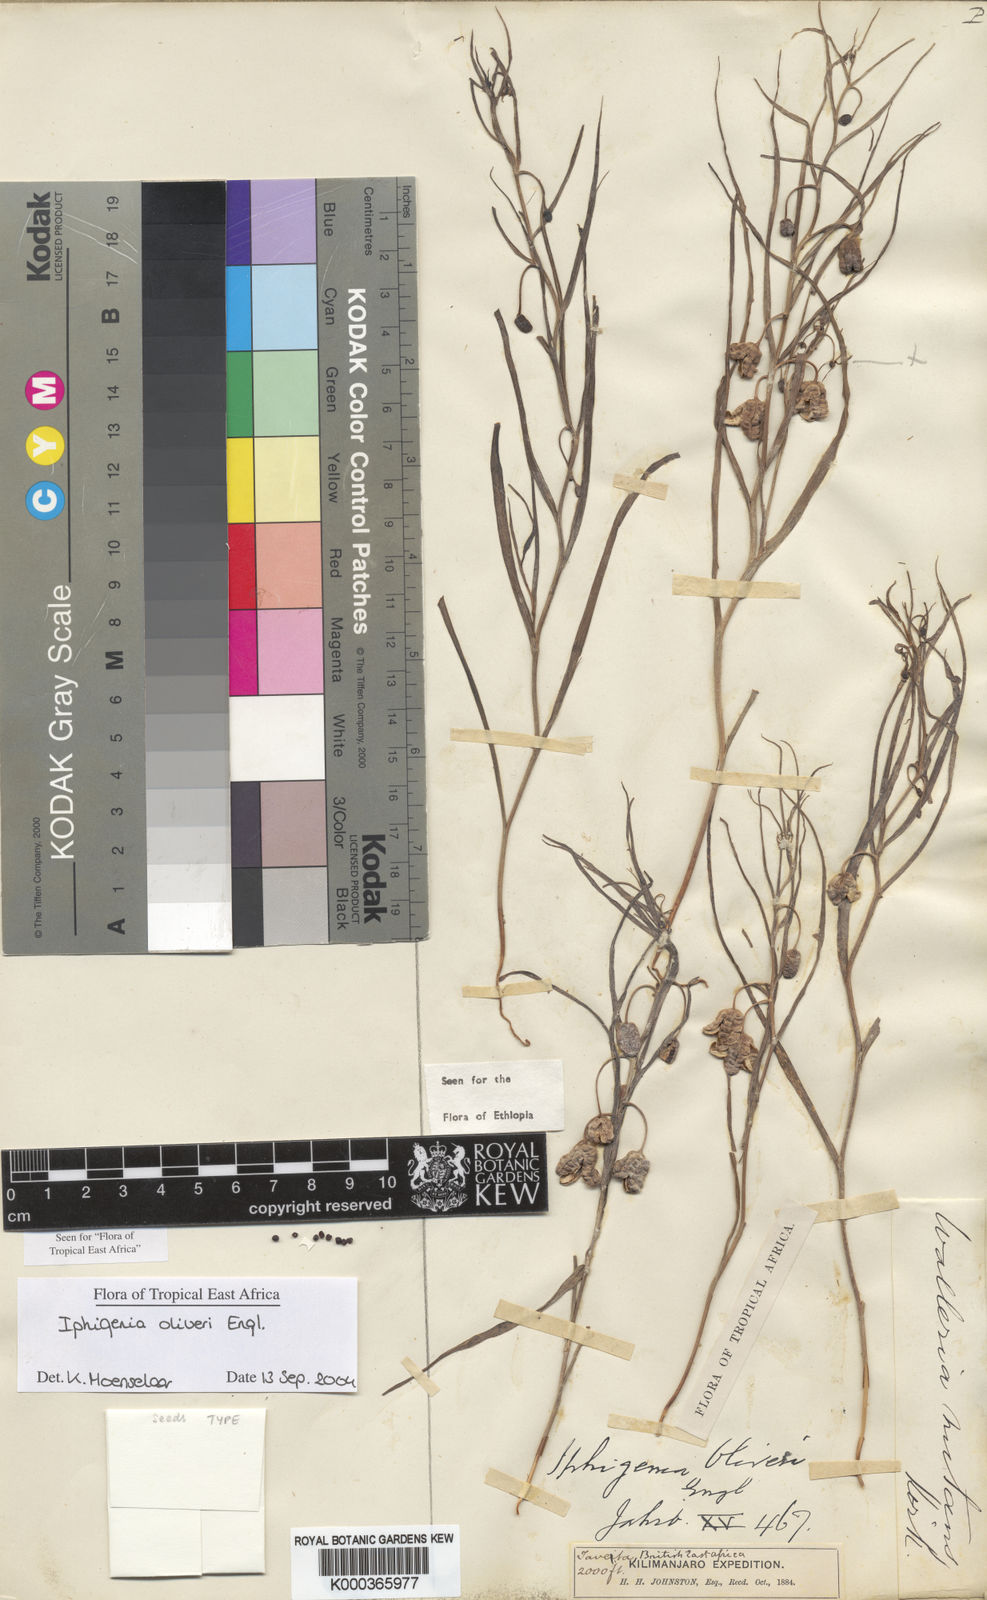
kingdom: Plantae
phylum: Tracheophyta
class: Liliopsida
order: Liliales
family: Colchicaceae
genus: Iphigenia
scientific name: Iphigenia oliveri
